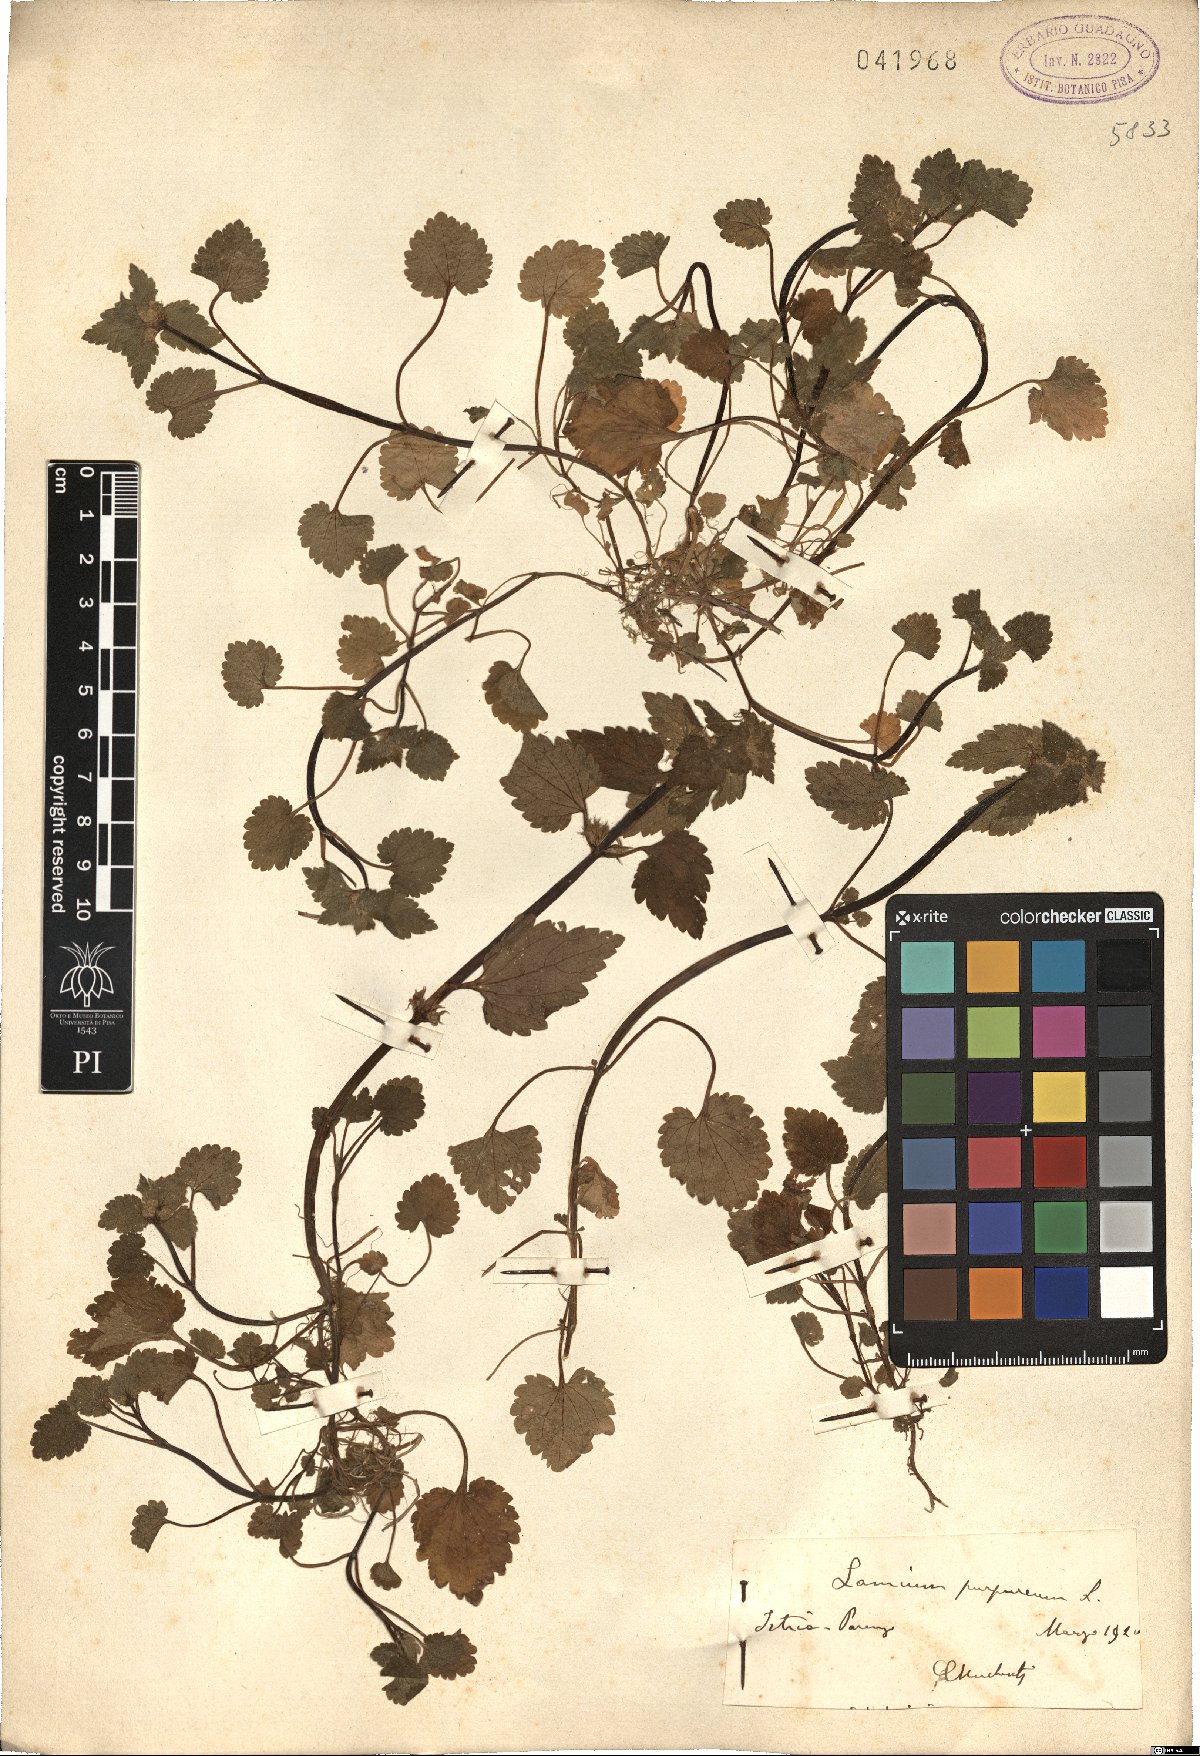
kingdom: Plantae
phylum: Tracheophyta
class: Magnoliopsida
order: Lamiales
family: Lamiaceae
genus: Lamium
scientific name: Lamium purpureum
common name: Red dead-nettle
